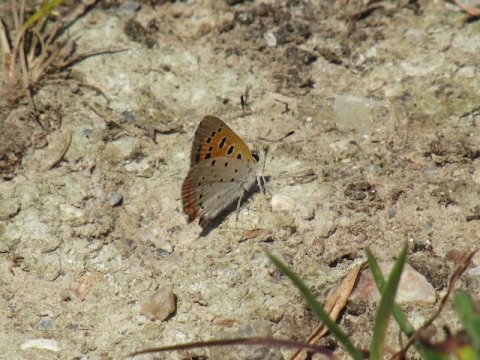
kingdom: Animalia
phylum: Arthropoda
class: Insecta
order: Lepidoptera
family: Lycaenidae
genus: Lycaena
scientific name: Lycaena phlaeas
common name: American Copper
